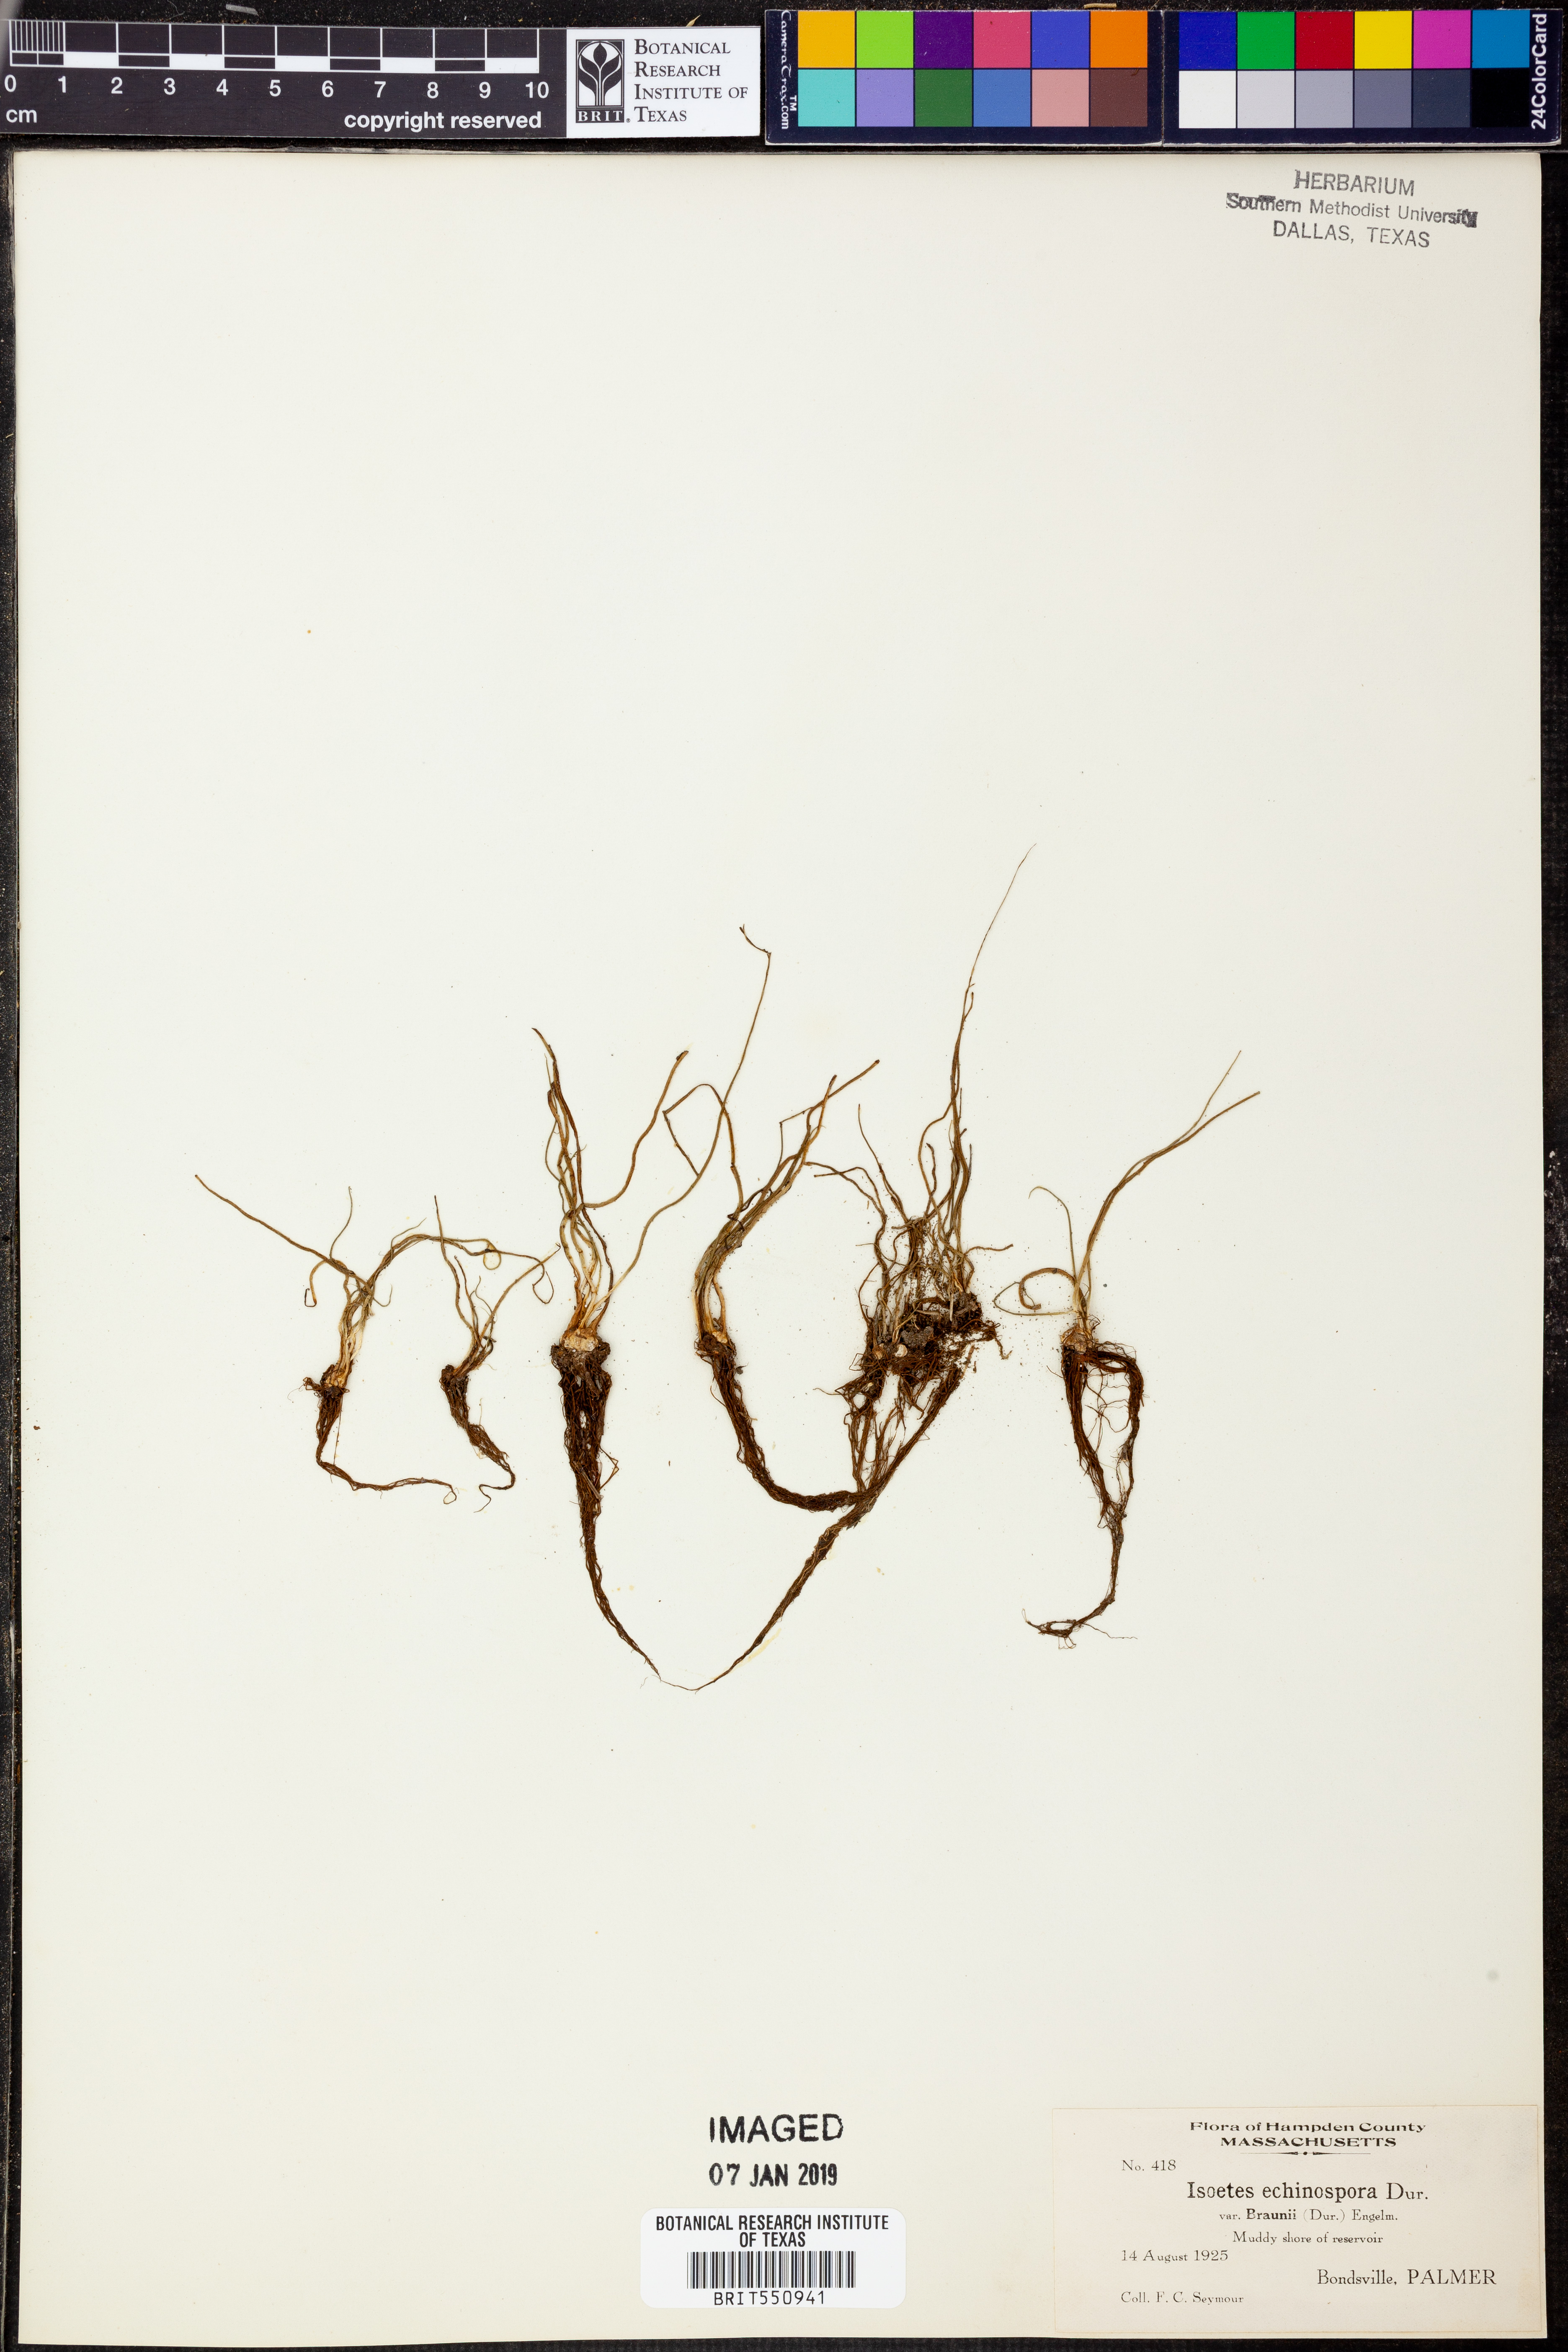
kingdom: Plantae
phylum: Tracheophyta
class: Lycopodiopsida
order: Isoetales
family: Isoetaceae
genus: Isoetes
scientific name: Isoetes echinospora
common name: Spring quillwort
